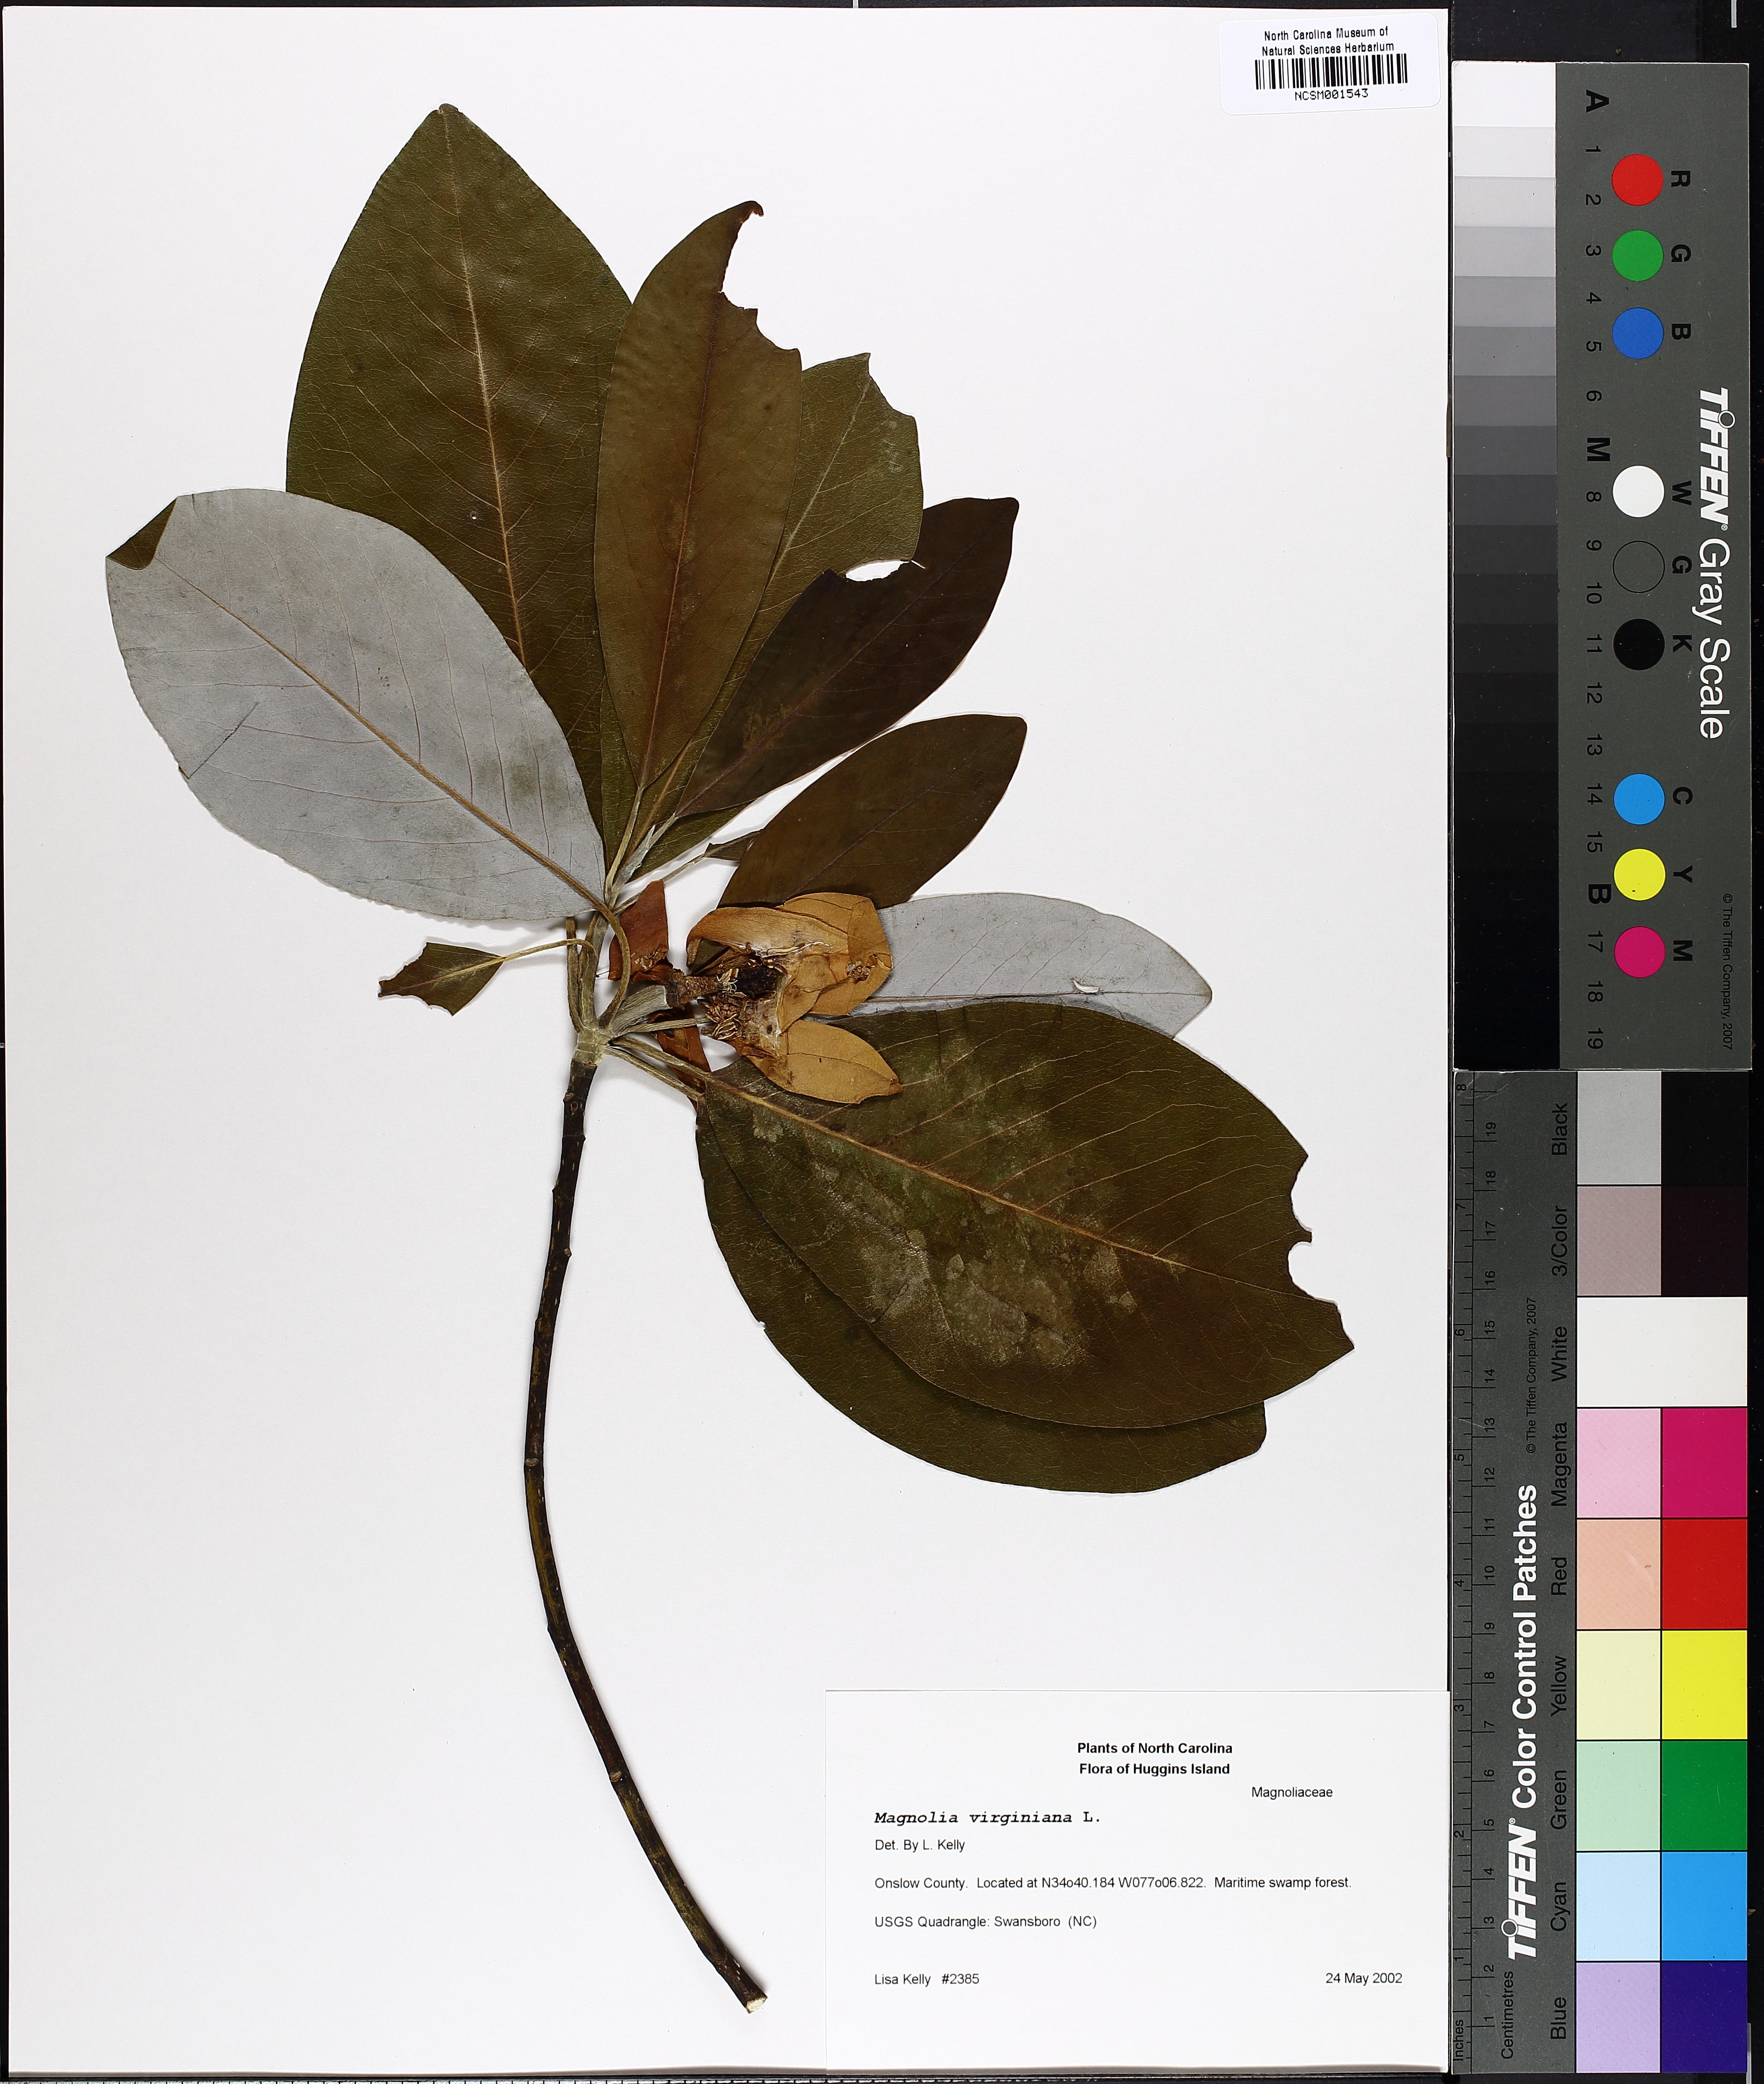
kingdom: Plantae
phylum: Tracheophyta
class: Magnoliopsida
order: Magnoliales
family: Magnoliaceae
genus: Magnolia
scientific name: Magnolia virginiana
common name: Swamp bay
